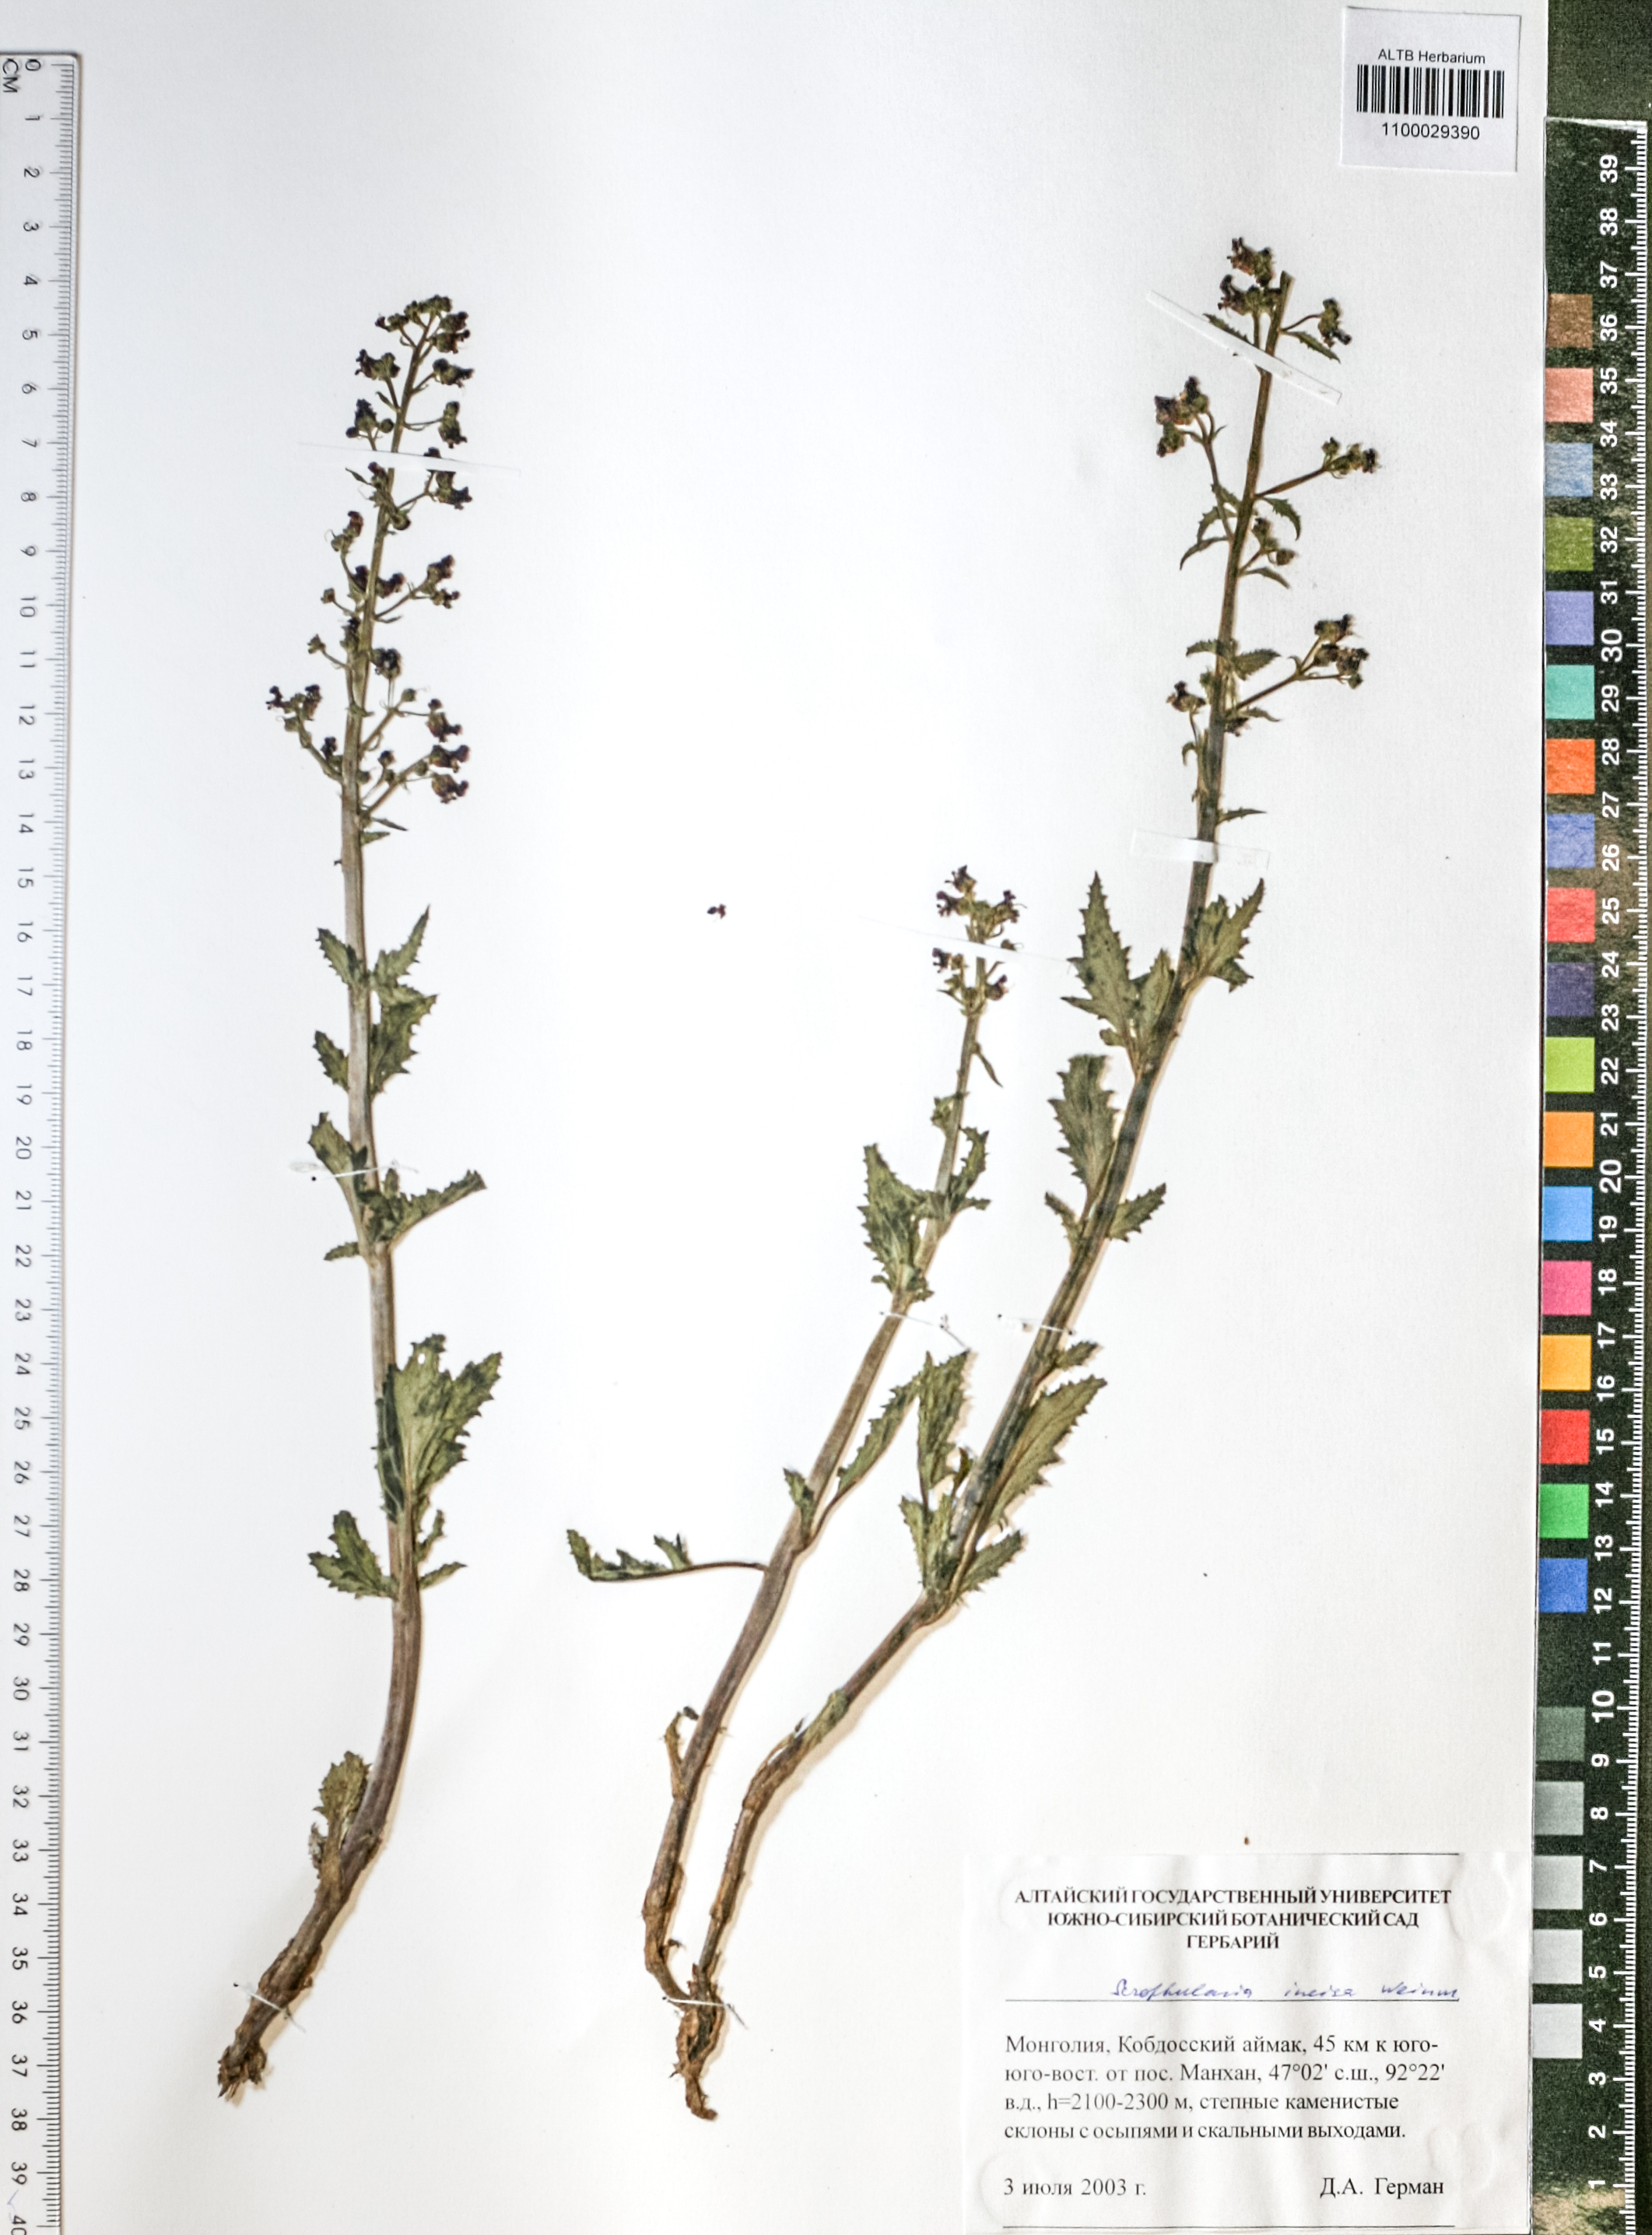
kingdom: Plantae
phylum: Tracheophyta
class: Magnoliopsida
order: Lamiales
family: Scrophulariaceae
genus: Scrophularia
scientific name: Scrophularia incisa
